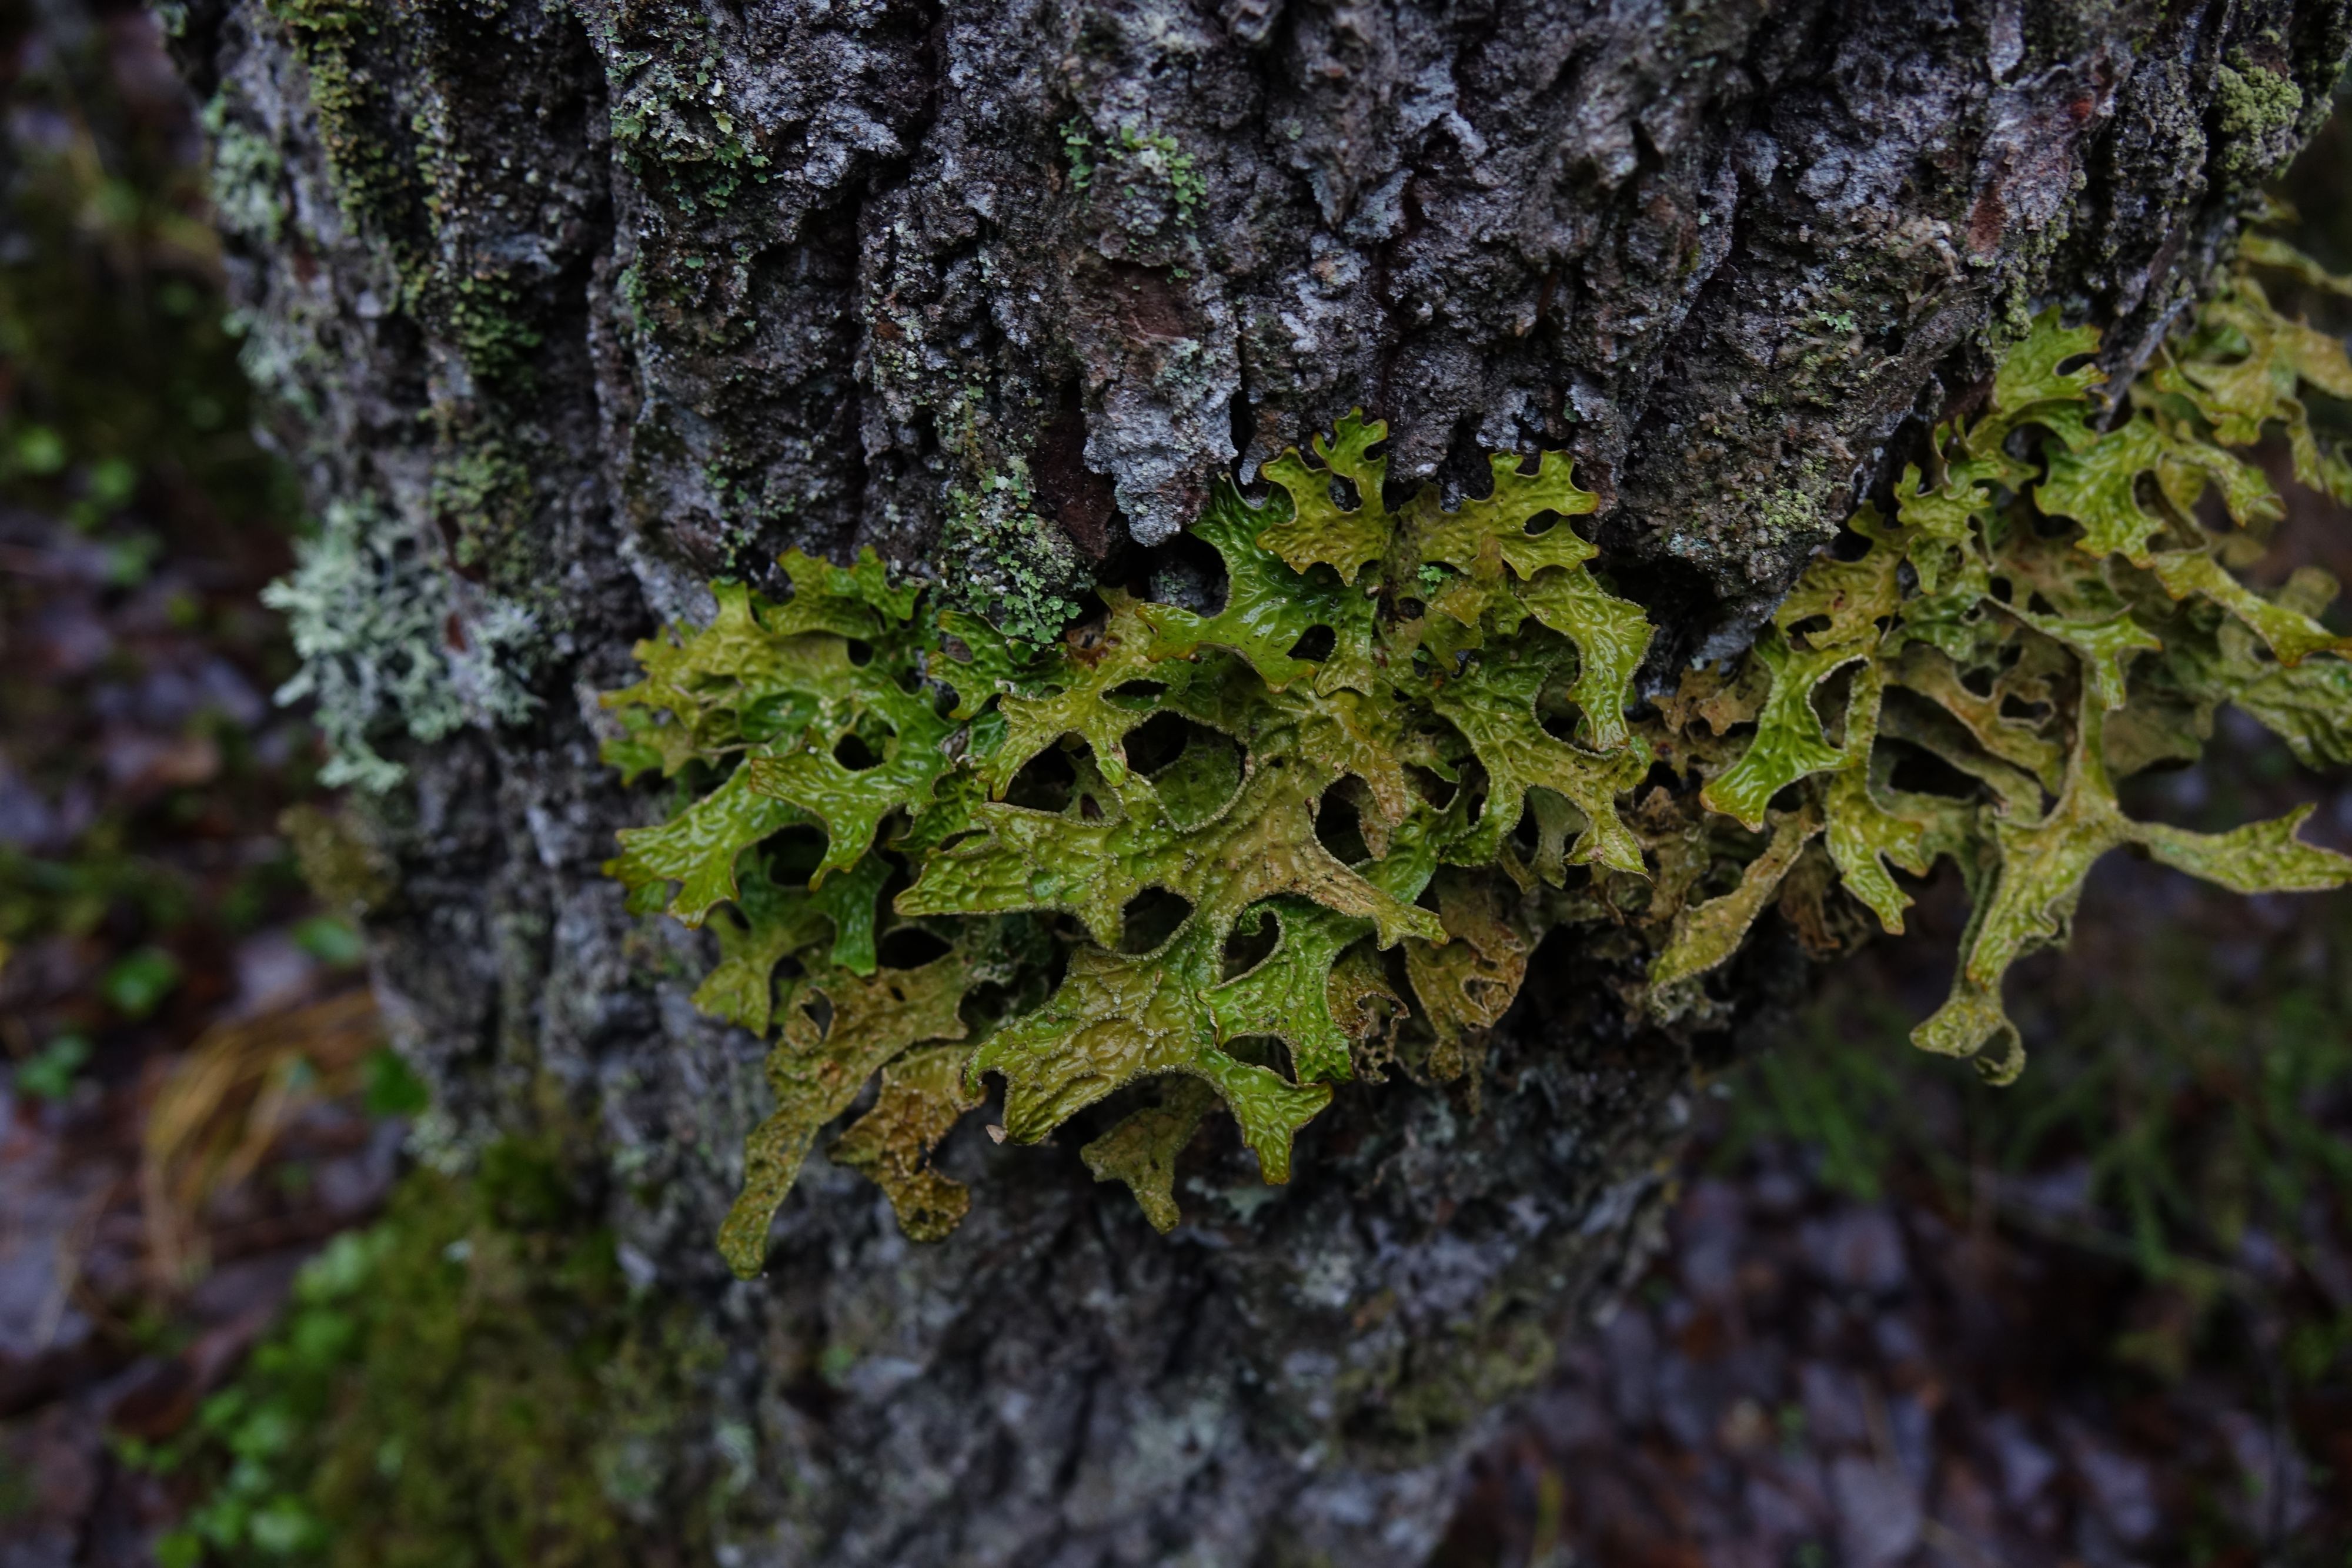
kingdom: Fungi
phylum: Ascomycota
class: Lecanoromycetes
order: Peltigerales
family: Lobariaceae
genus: Lobaria
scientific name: Lobaria pulmonaria
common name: Lungwort
